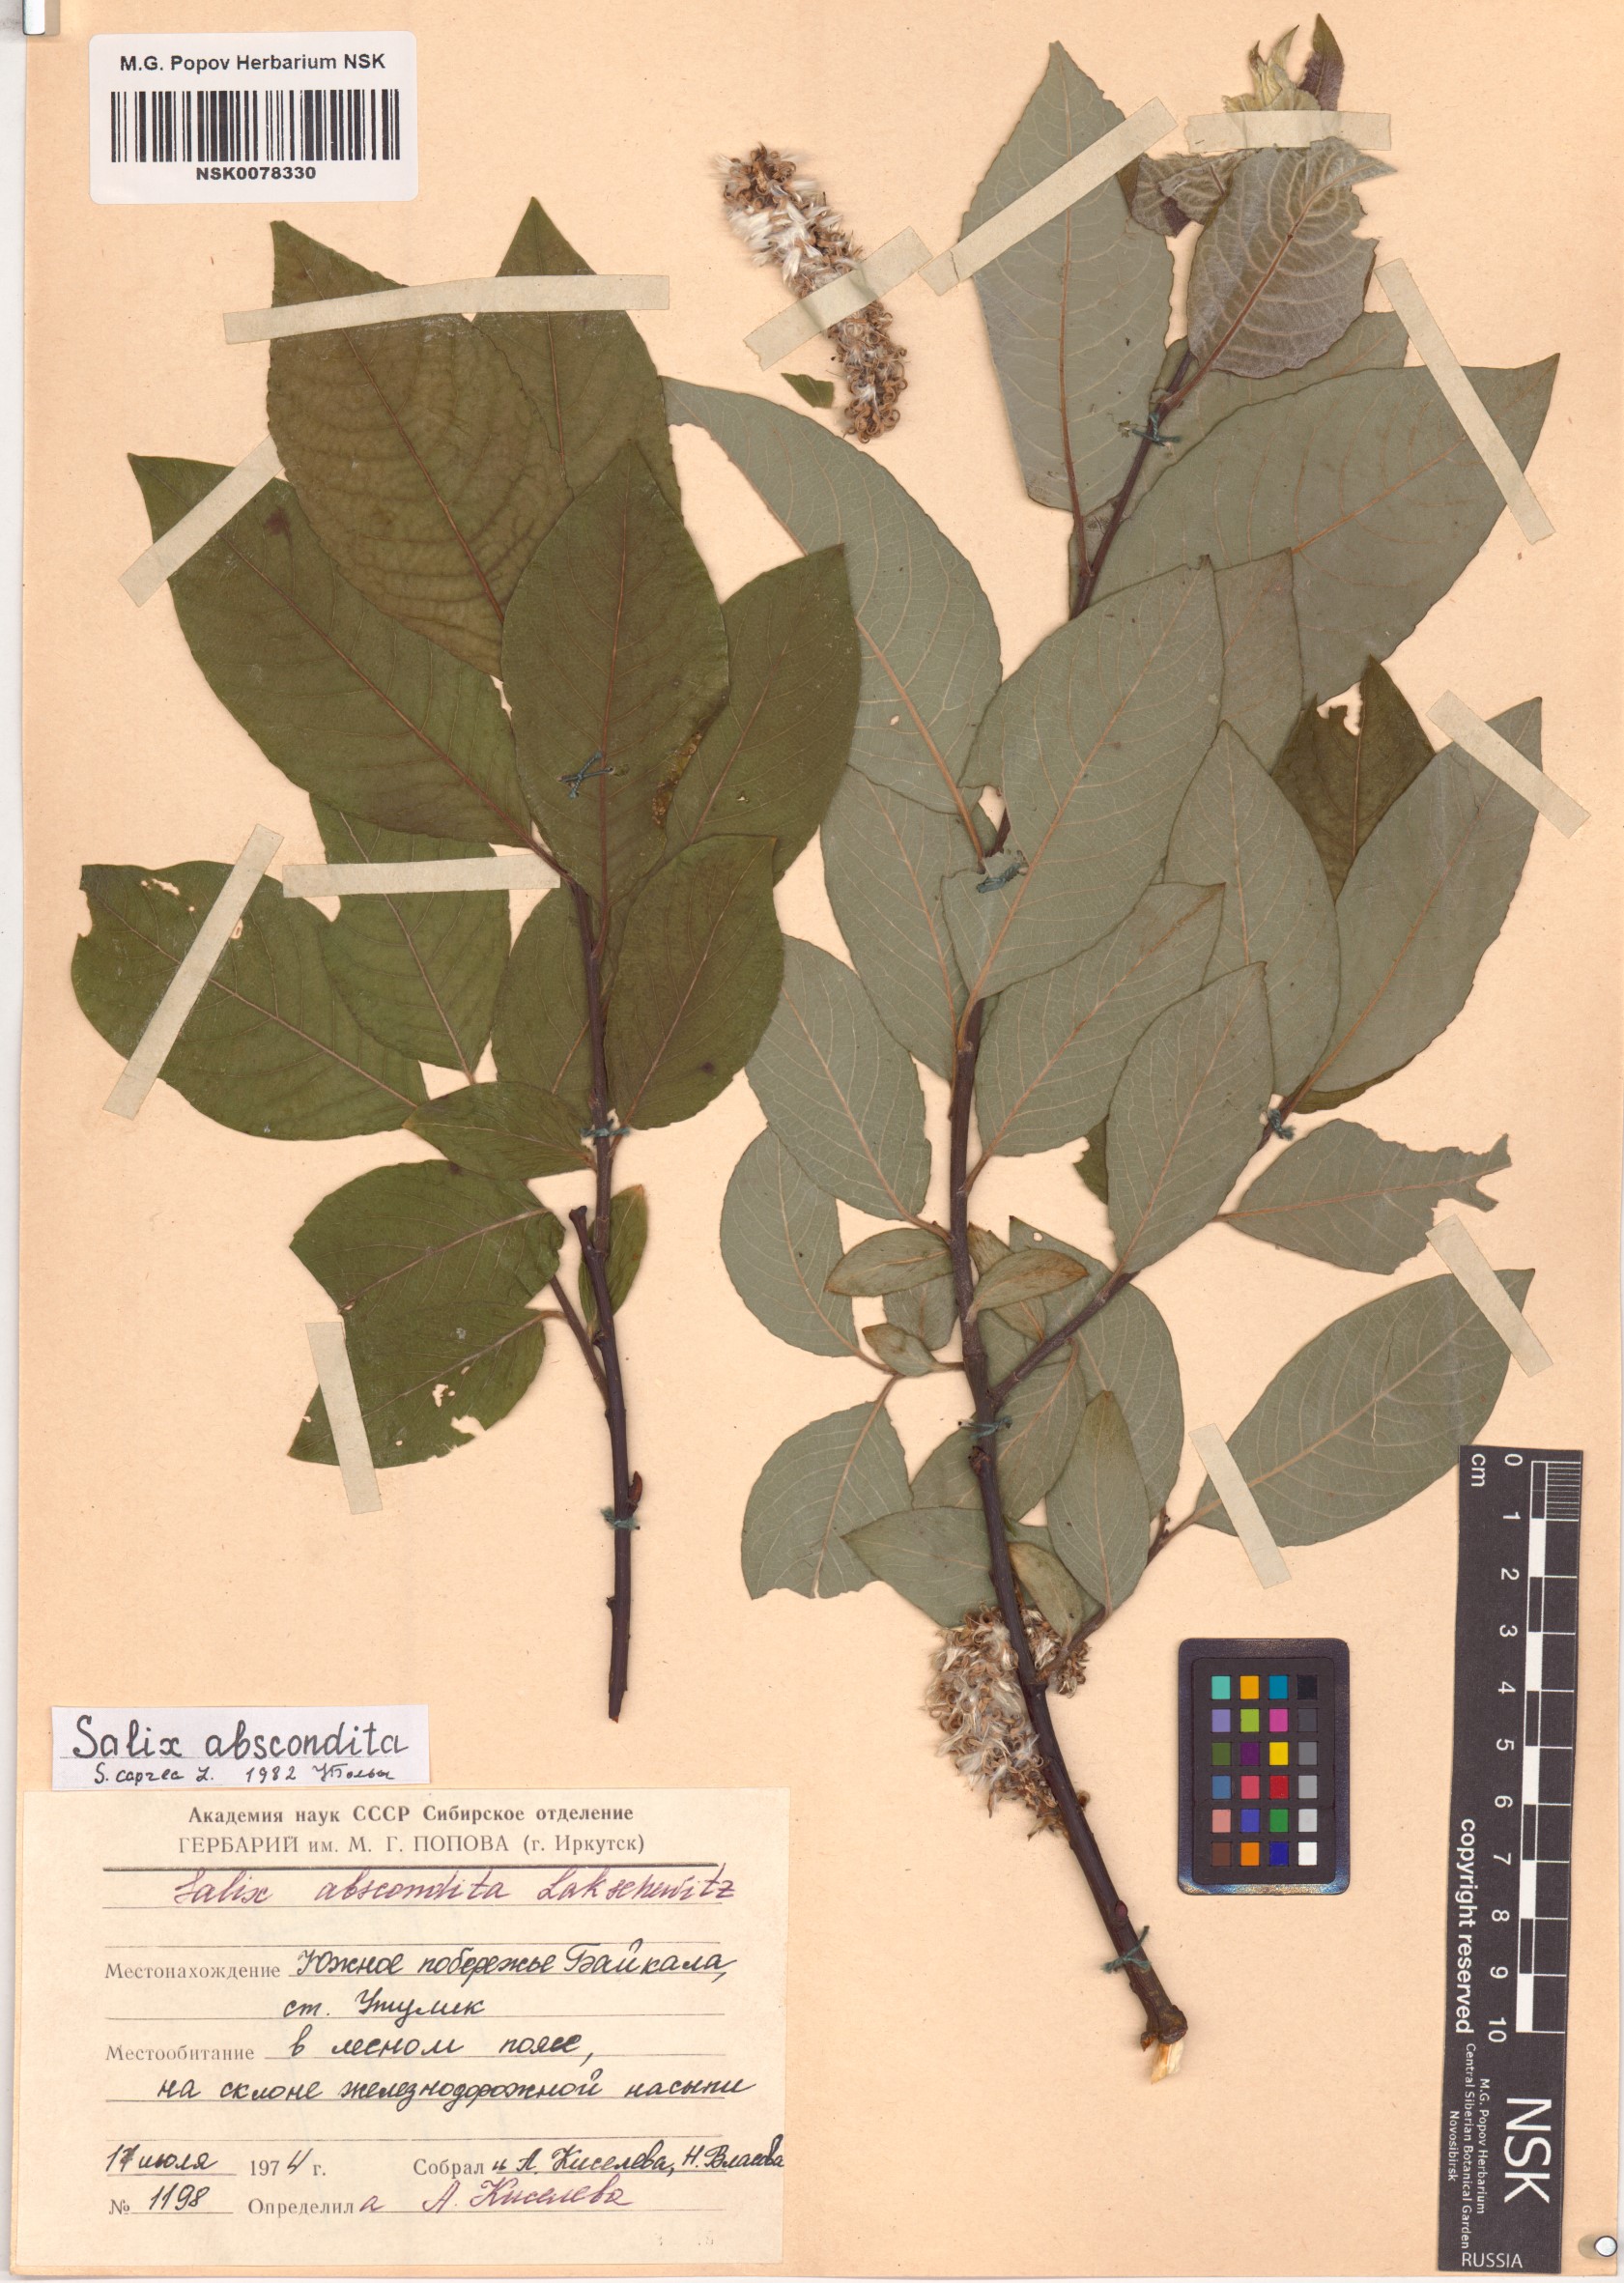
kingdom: Plantae
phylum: Tracheophyta
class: Magnoliopsida
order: Malpighiales
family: Salicaceae
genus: Salix
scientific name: Salix caprea
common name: Goat willow
